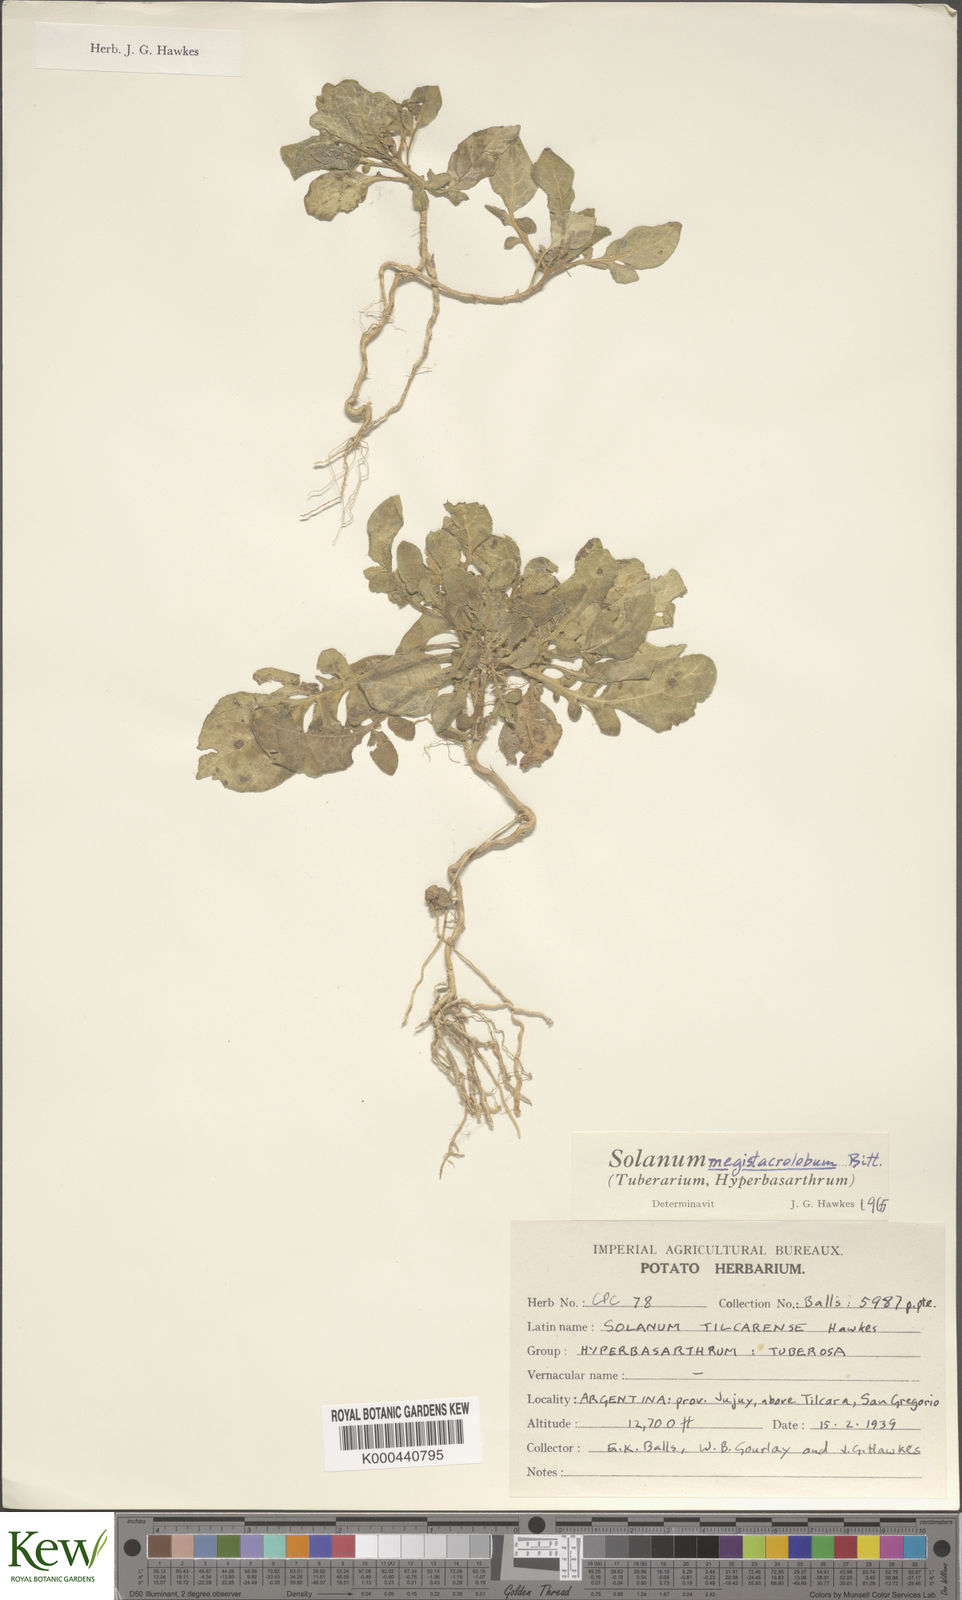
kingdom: Plantae
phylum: Tracheophyta
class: Magnoliopsida
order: Solanales
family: Solanaceae
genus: Solanum
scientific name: Solanum boliviense
